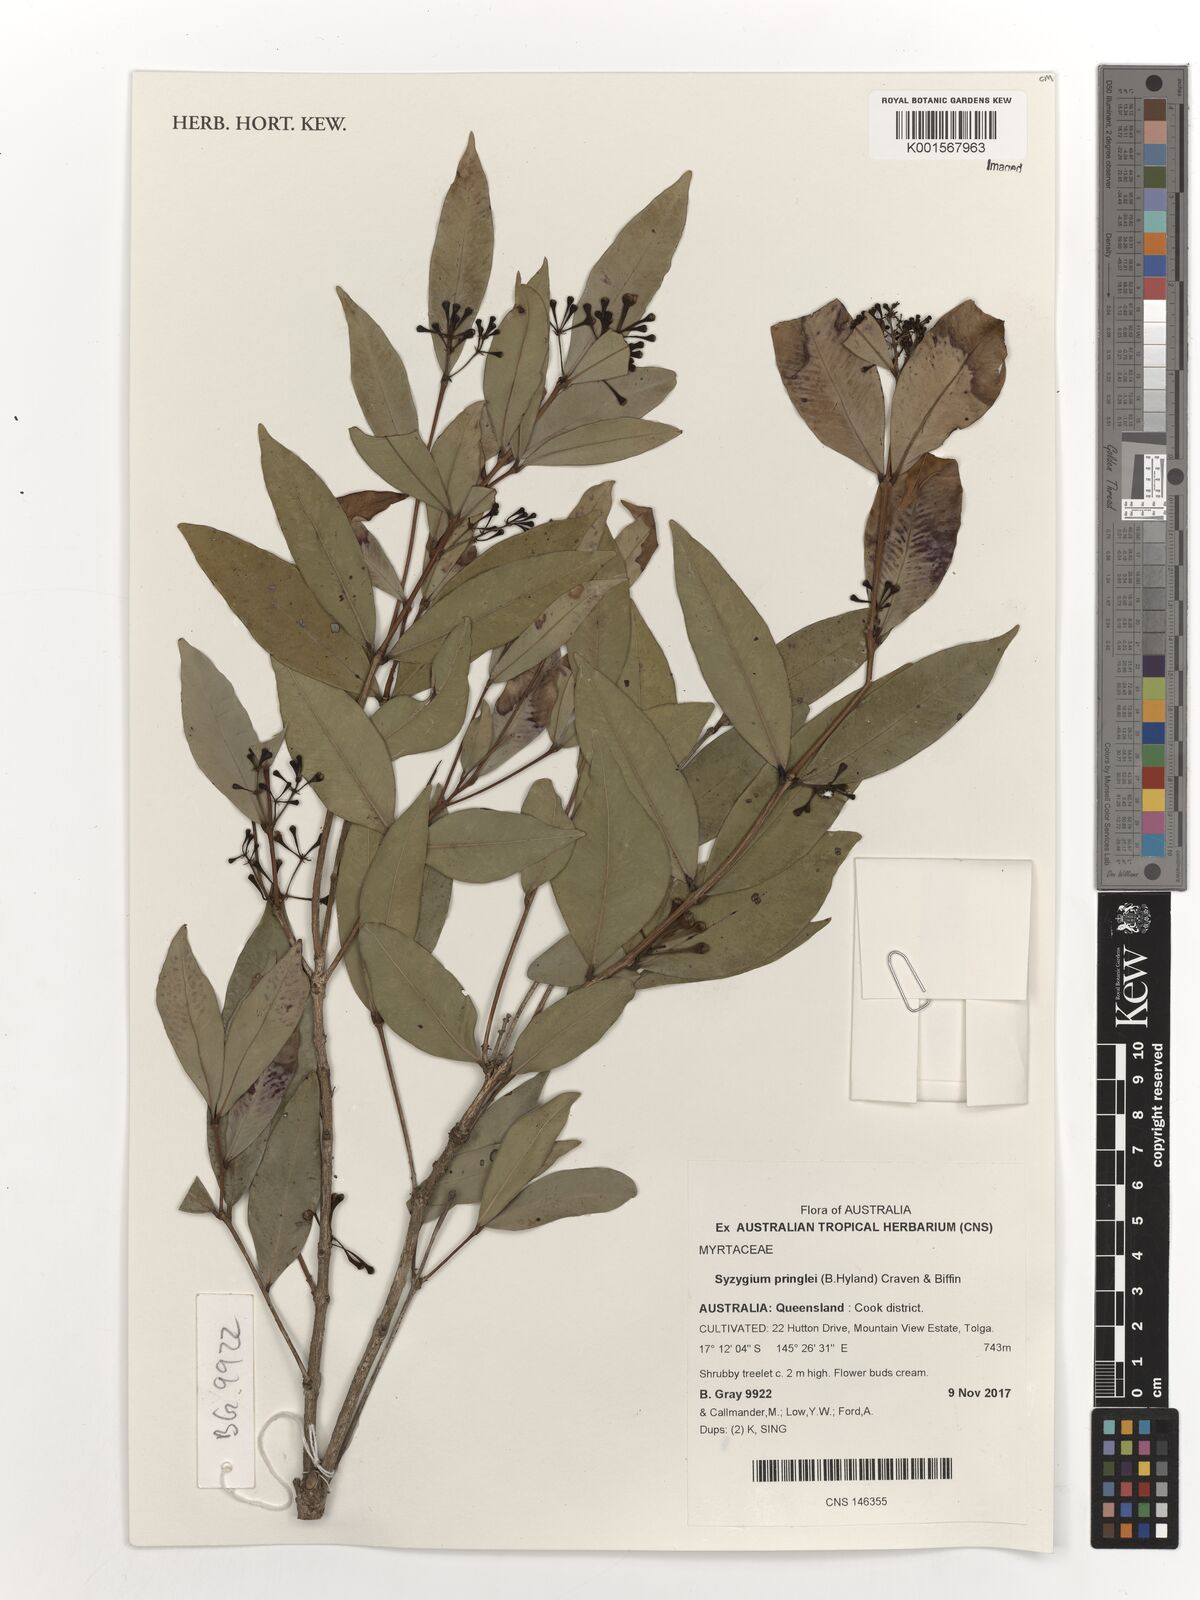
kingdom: Plantae
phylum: Tracheophyta
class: Magnoliopsida
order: Myrtales
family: Myrtaceae
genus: Syzygium
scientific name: Syzygium pringlei
